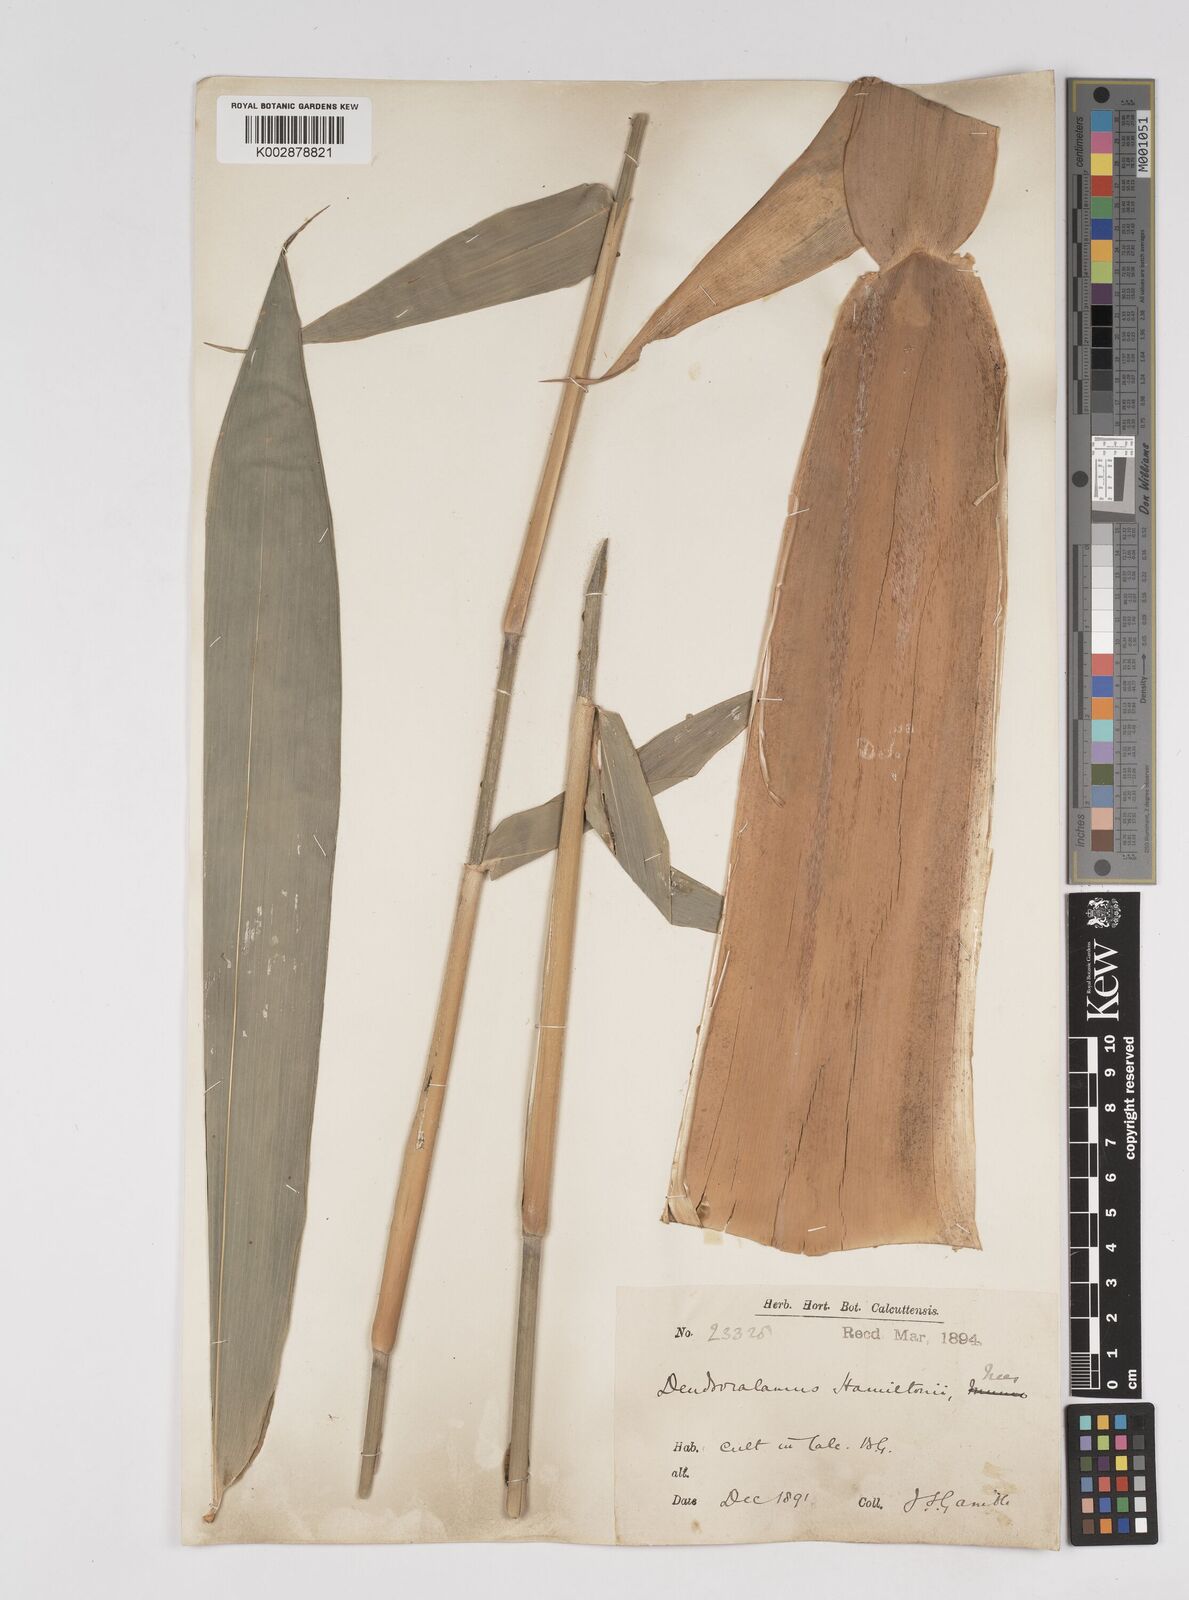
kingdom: Plantae
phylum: Tracheophyta
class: Liliopsida
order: Poales
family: Poaceae
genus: Dendrocalamus
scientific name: Dendrocalamus hamiltonii
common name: Tama bamboo
